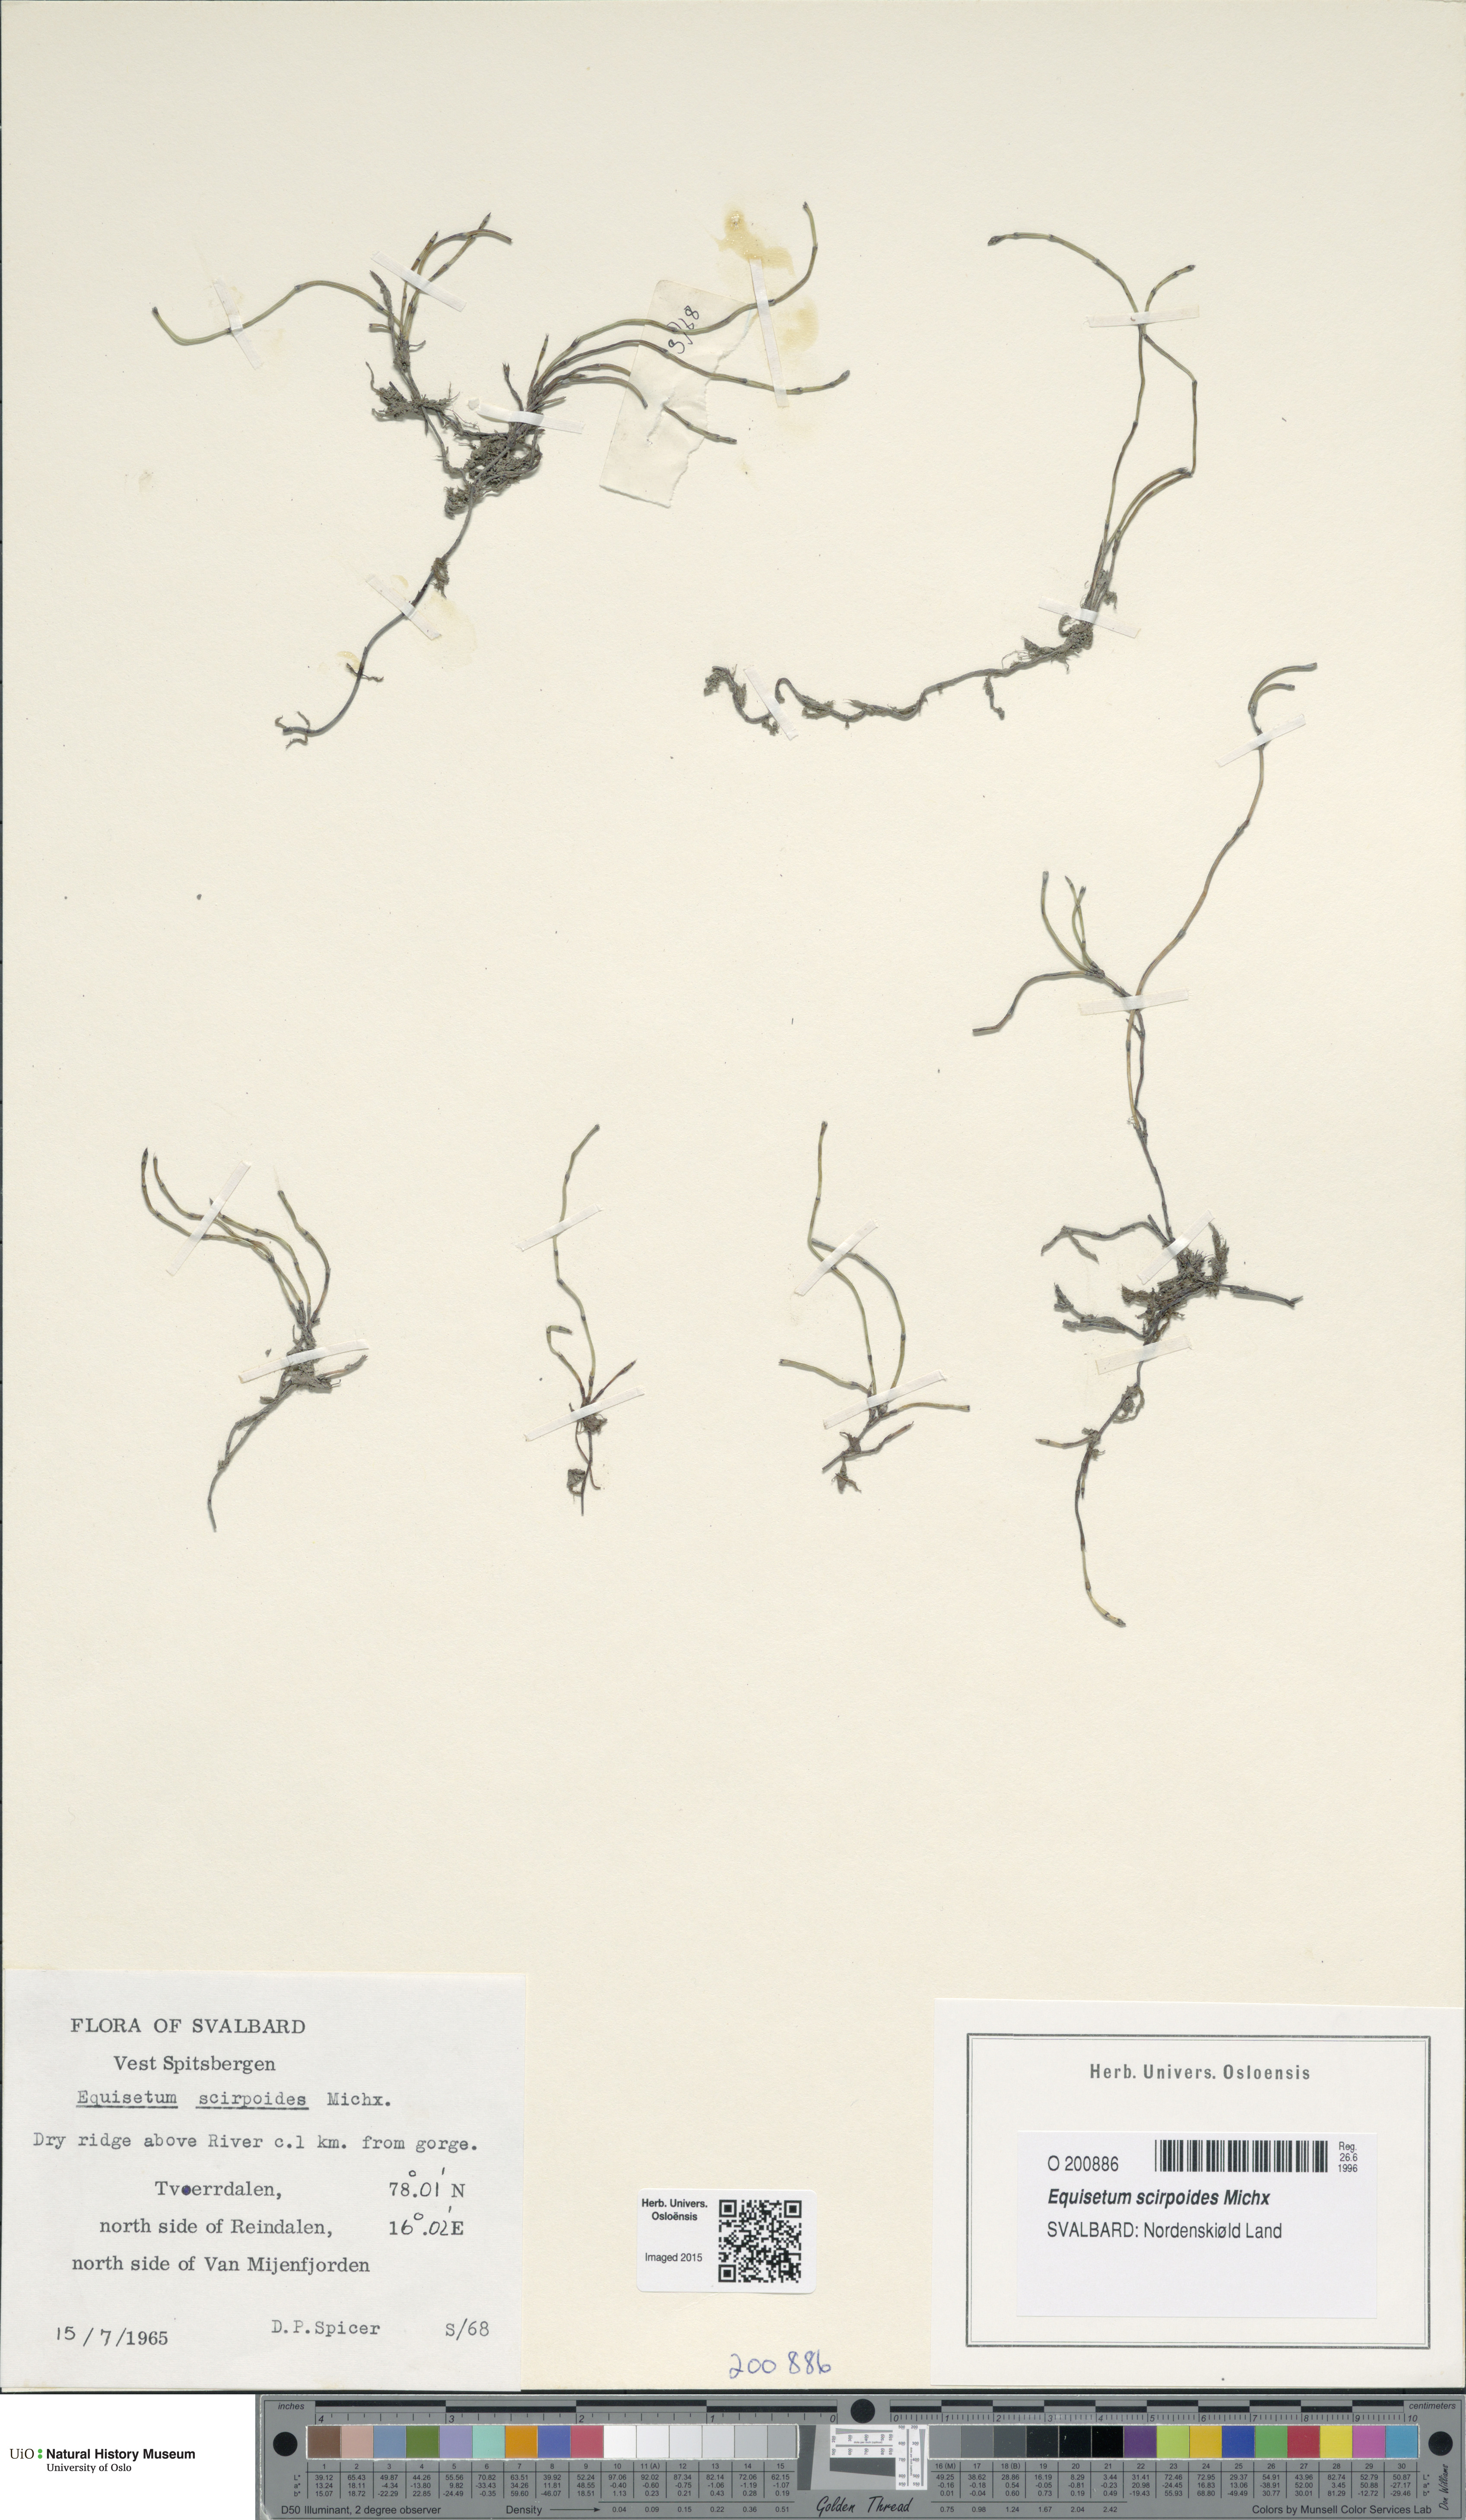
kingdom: Plantae
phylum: Tracheophyta
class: Polypodiopsida
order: Equisetales
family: Equisetaceae
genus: Equisetum
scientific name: Equisetum scirpoides
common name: Delicate horsetail
